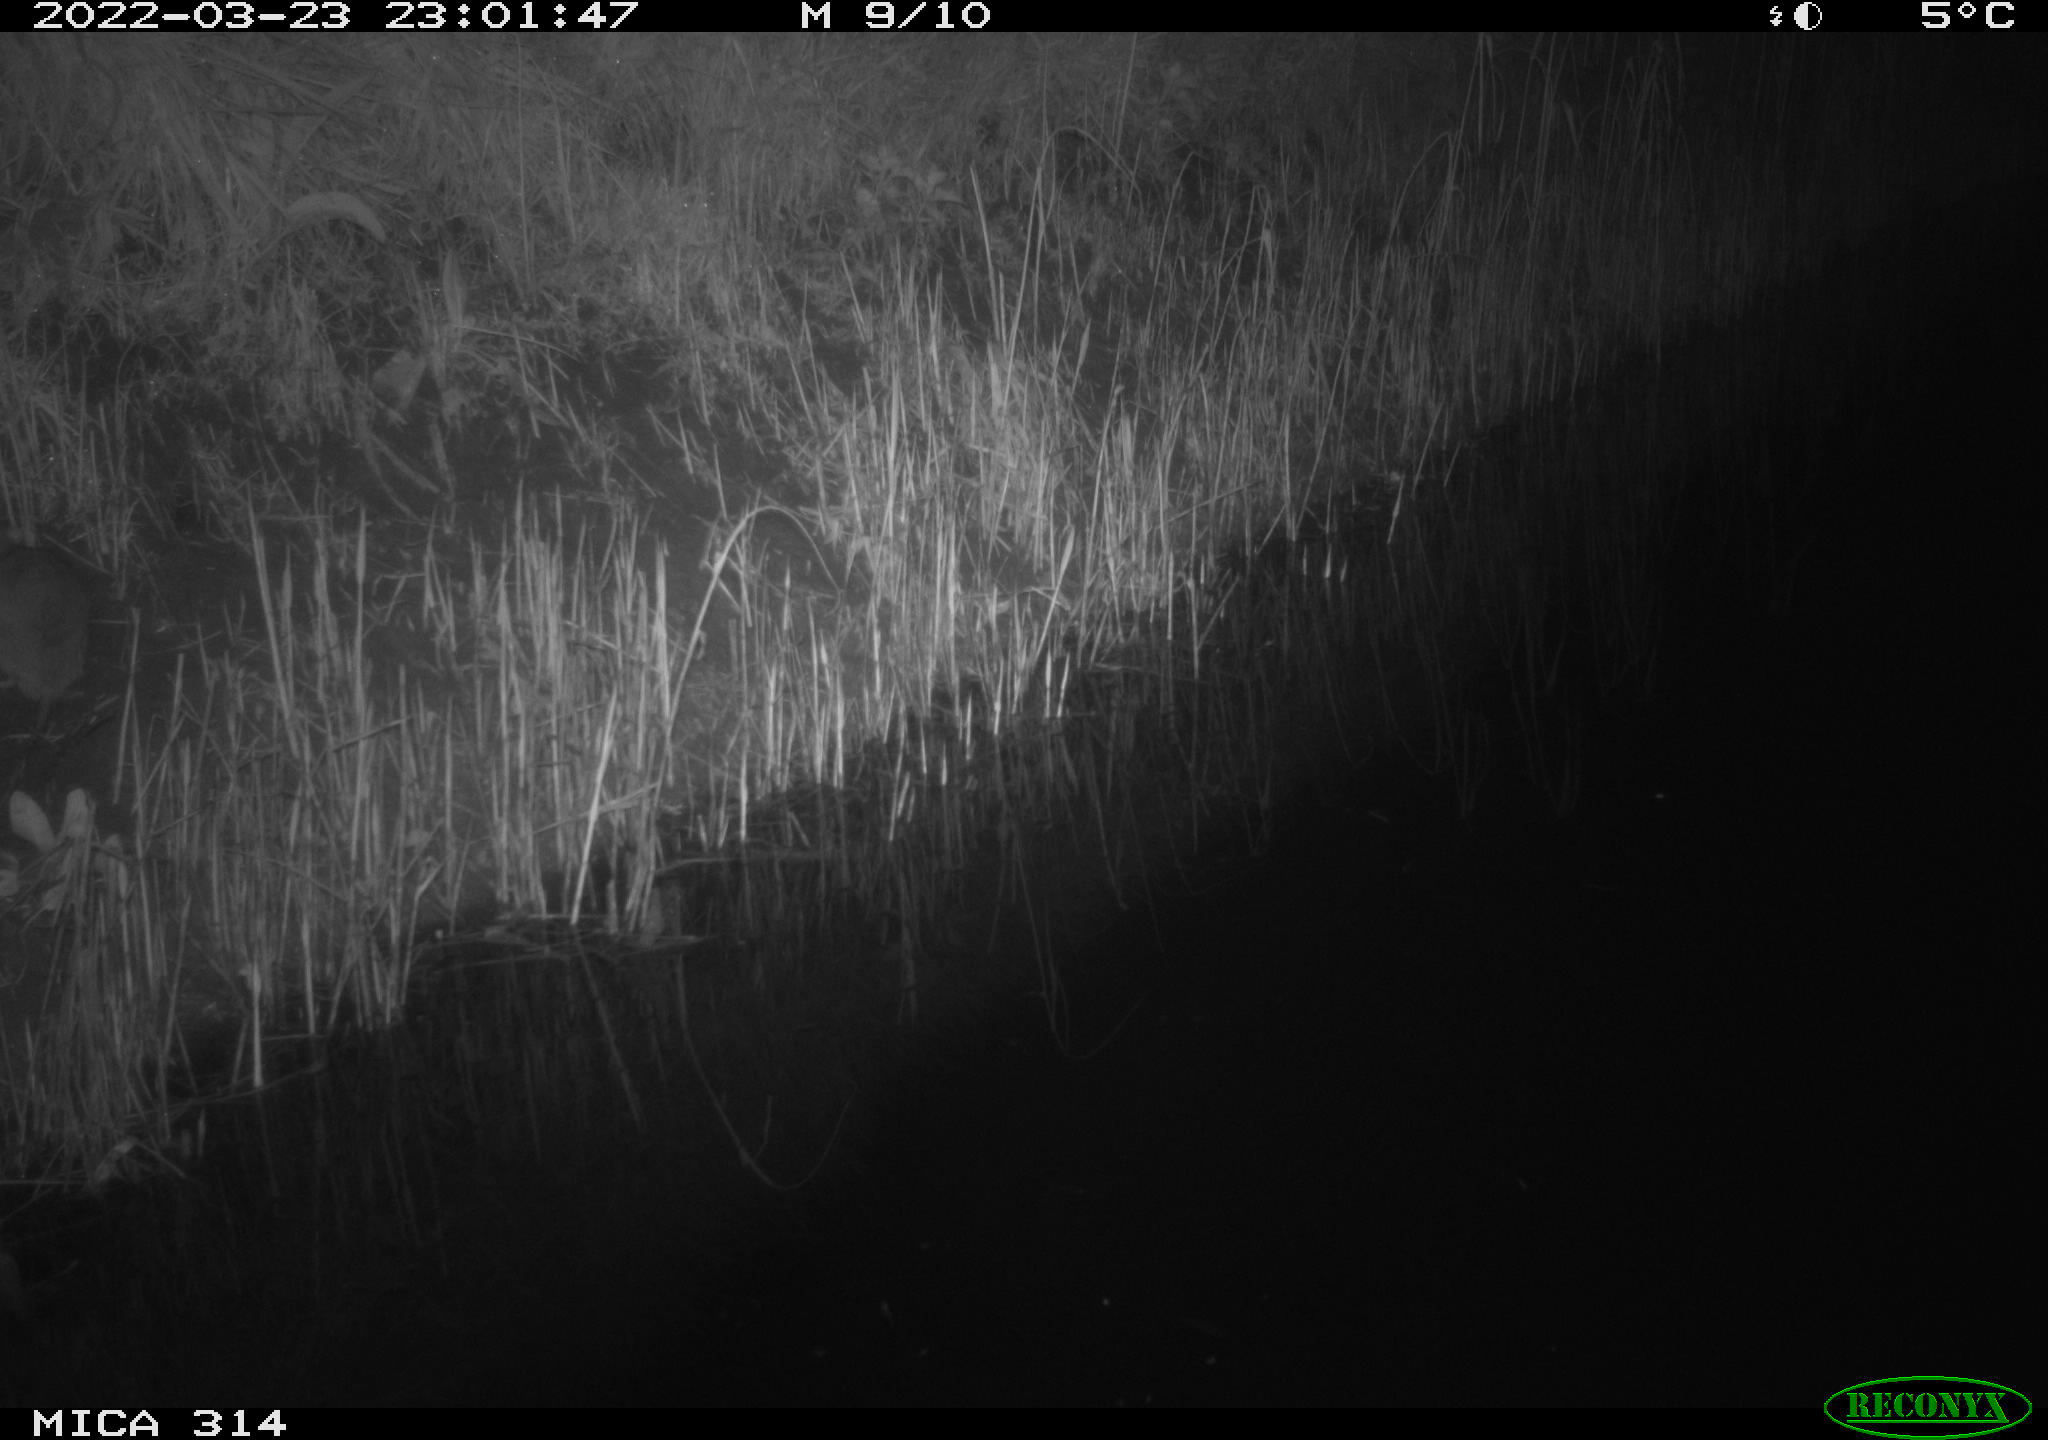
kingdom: Animalia
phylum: Chordata
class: Mammalia
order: Rodentia
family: Muridae
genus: Rattus
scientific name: Rattus norvegicus
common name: Brown rat
